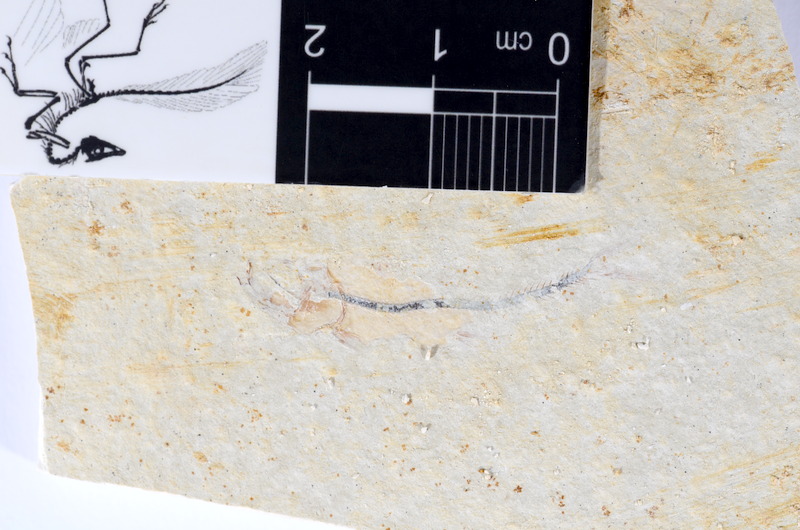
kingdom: Animalia
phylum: Chordata
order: Salmoniformes
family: Orthogonikleithridae
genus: Orthogonikleithrus
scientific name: Orthogonikleithrus hoelli
